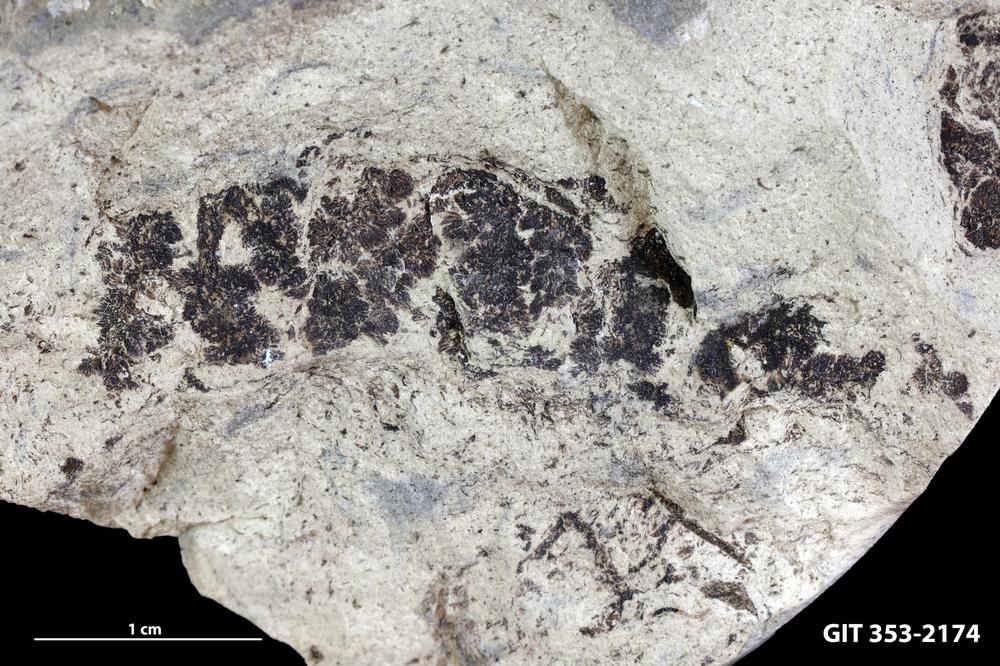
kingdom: Plantae
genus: Leveilleites
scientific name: Leveilleites hartnageli
